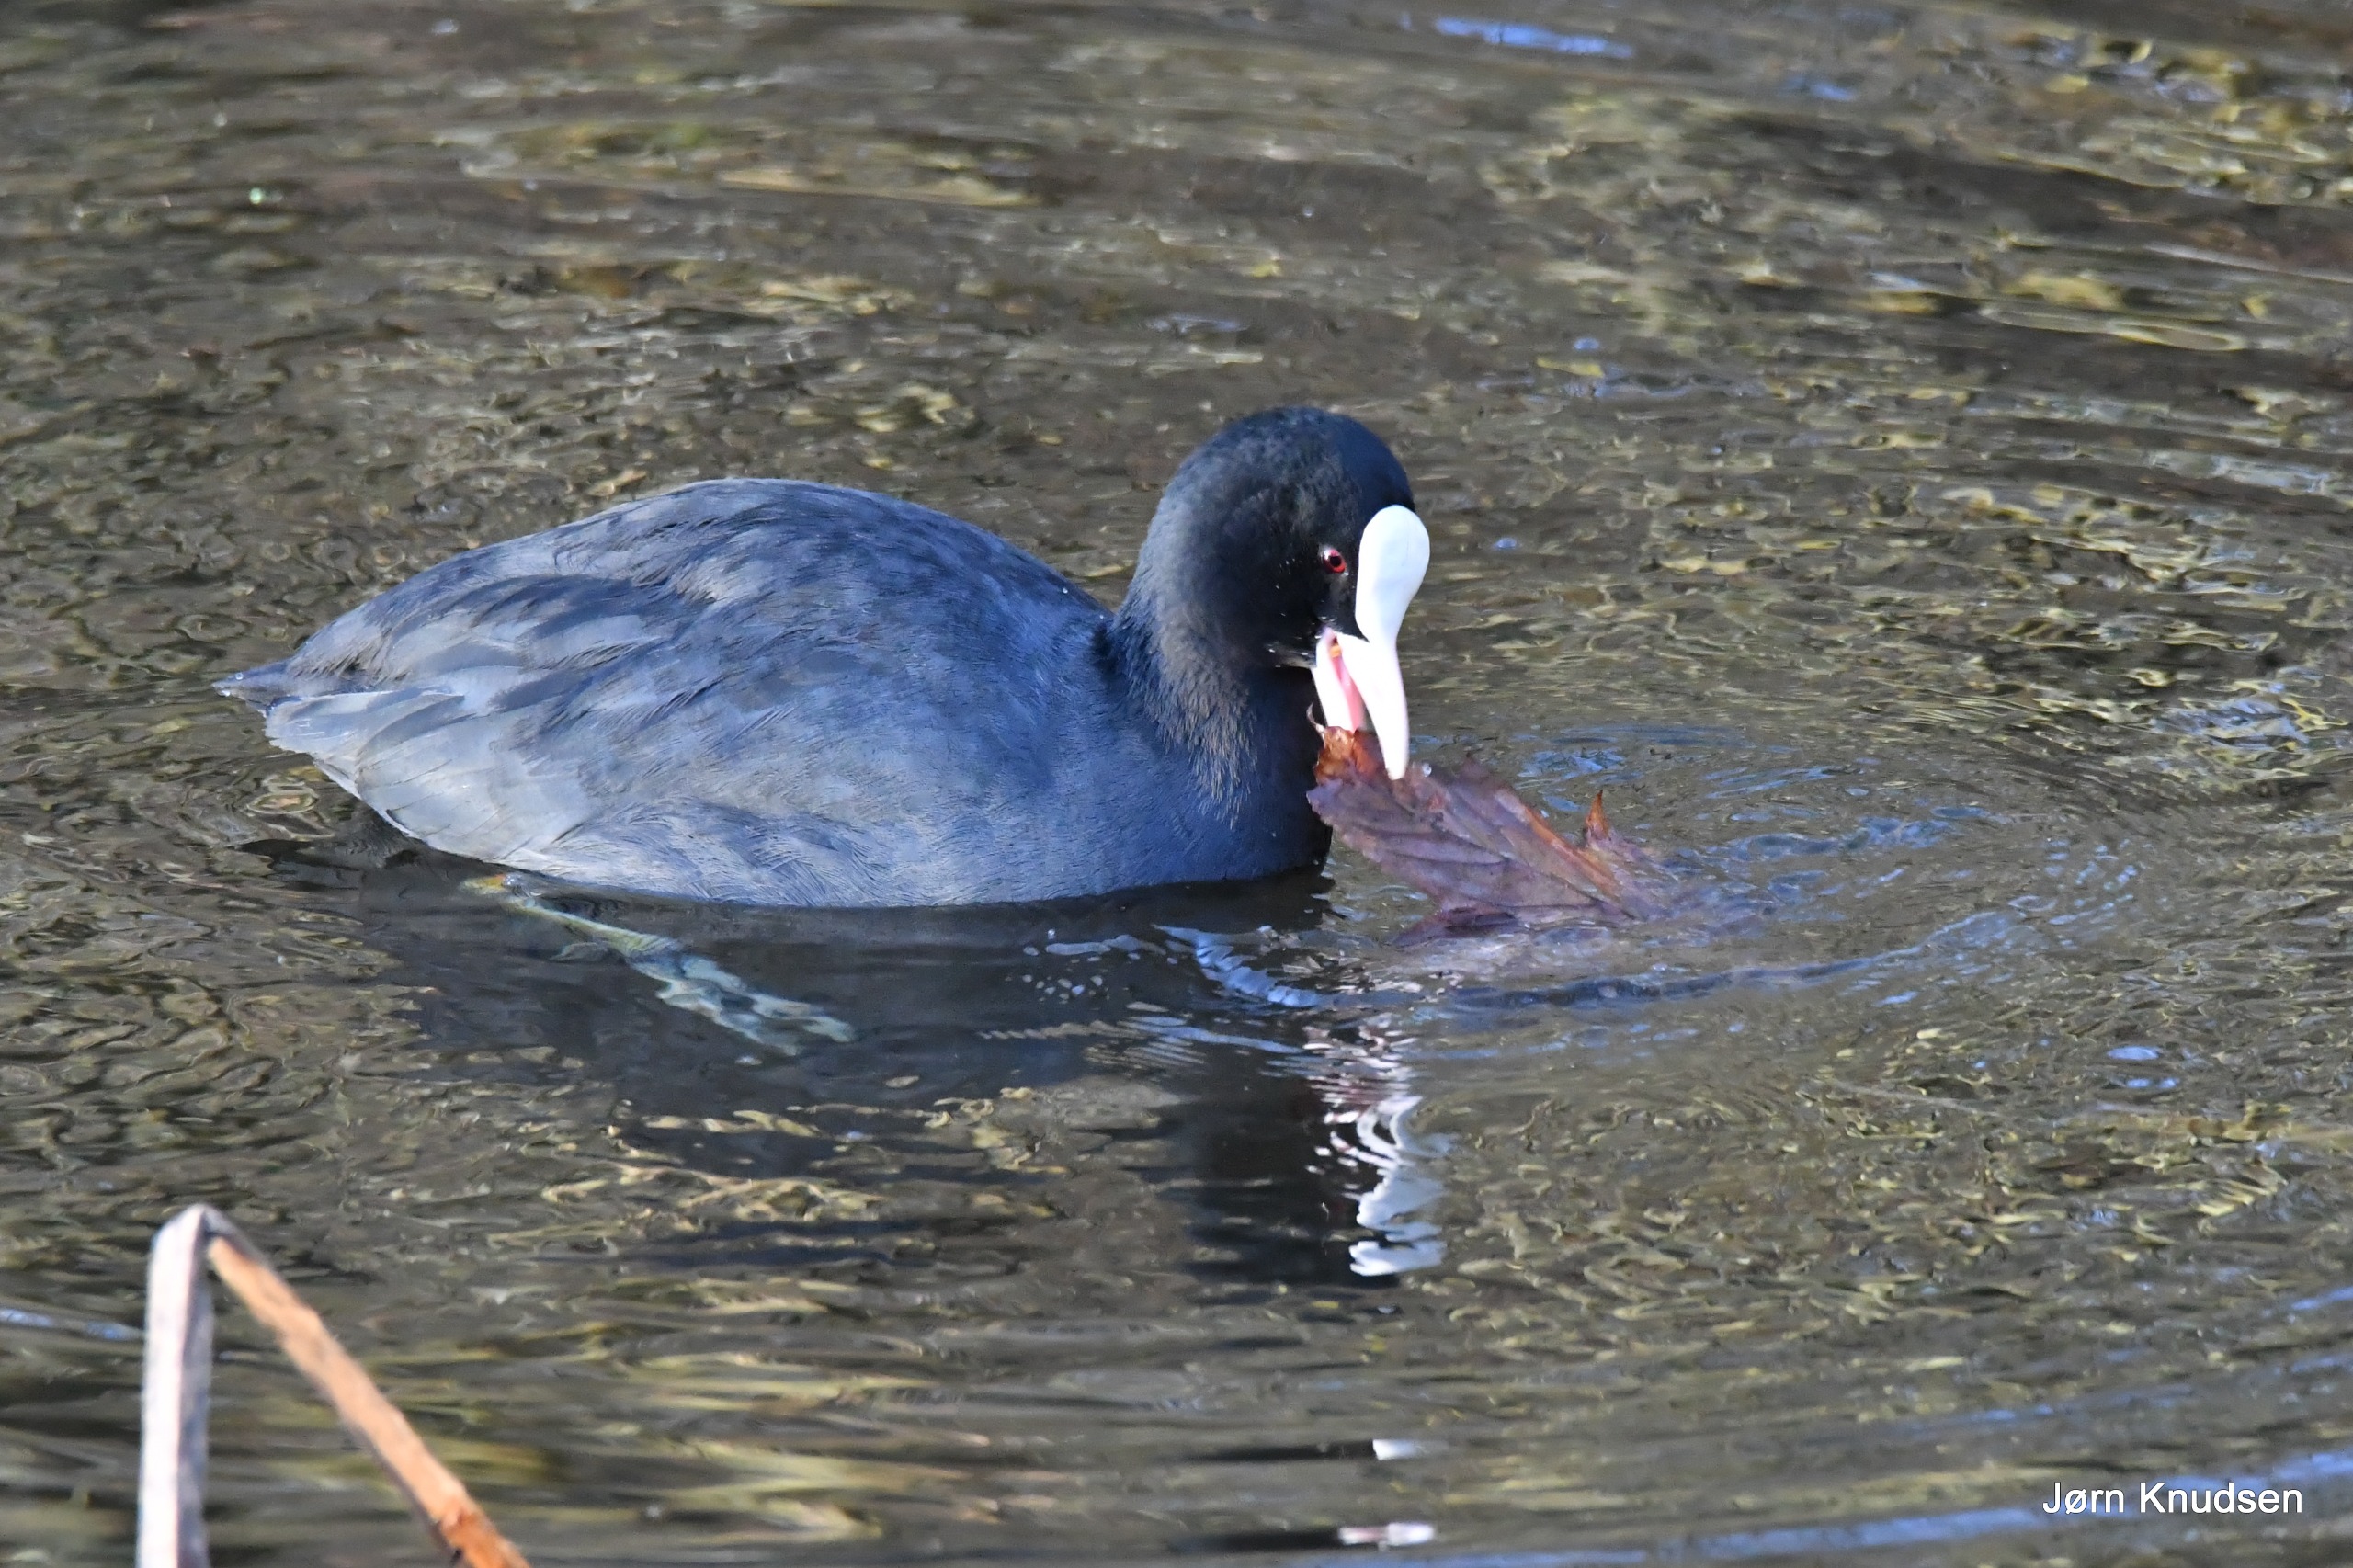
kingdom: Animalia
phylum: Chordata
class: Aves
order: Gruiformes
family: Rallidae
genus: Fulica
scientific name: Fulica atra
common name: Blishøne
